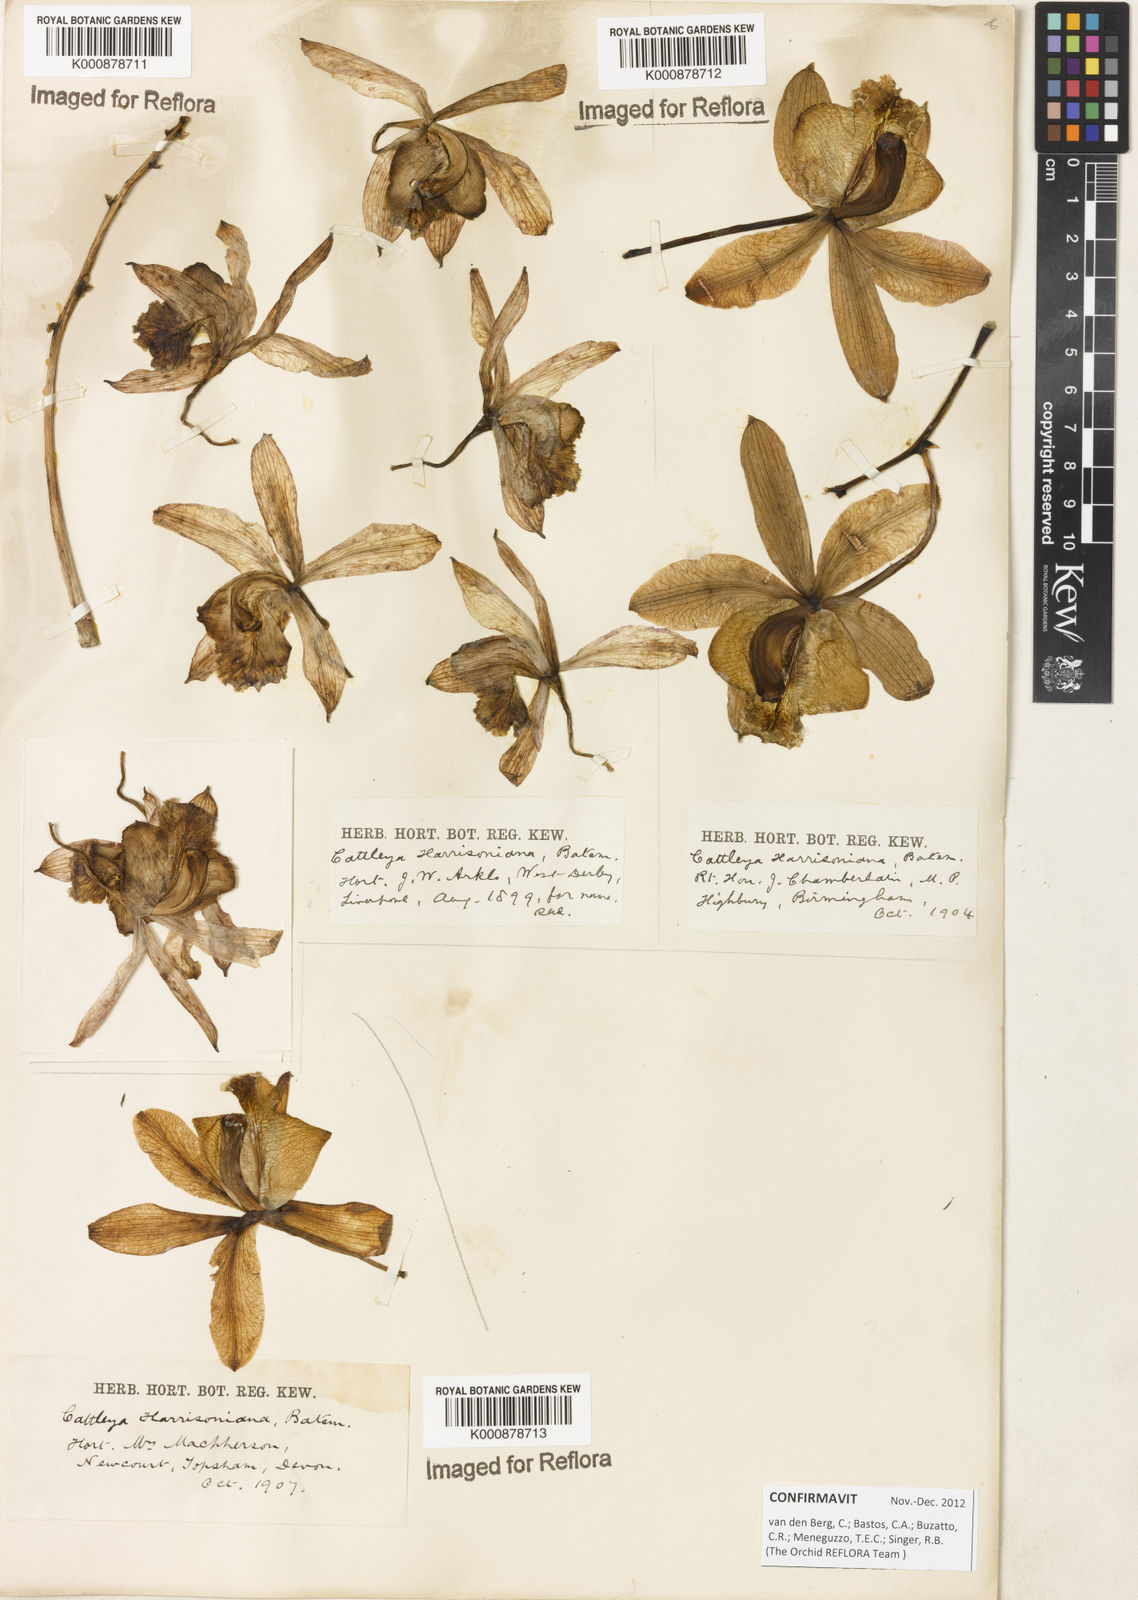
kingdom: Plantae
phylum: Tracheophyta
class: Liliopsida
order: Asparagales
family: Orchidaceae
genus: Cattleya
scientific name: Cattleya harrisoniana
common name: Harrison's cattleya
